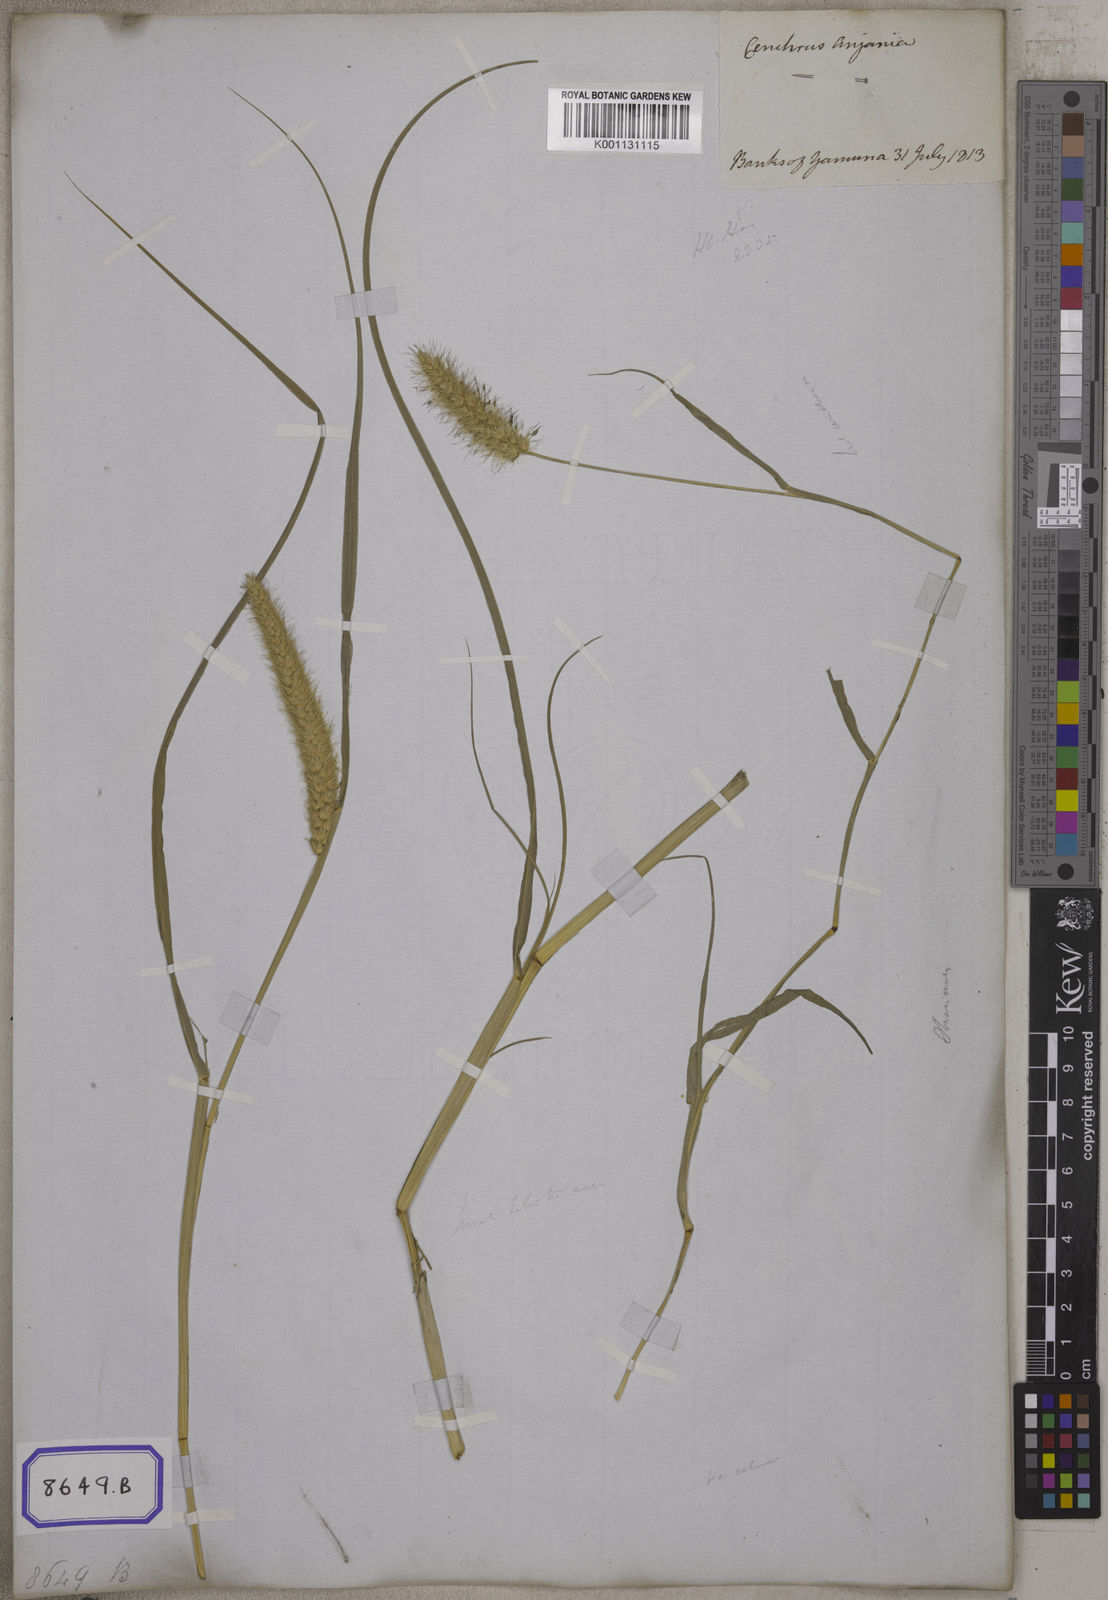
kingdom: Plantae
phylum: Tracheophyta
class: Liliopsida
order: Poales
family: Poaceae
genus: Cenchrus
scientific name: Cenchrus ciliaris
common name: Buffelgrass
